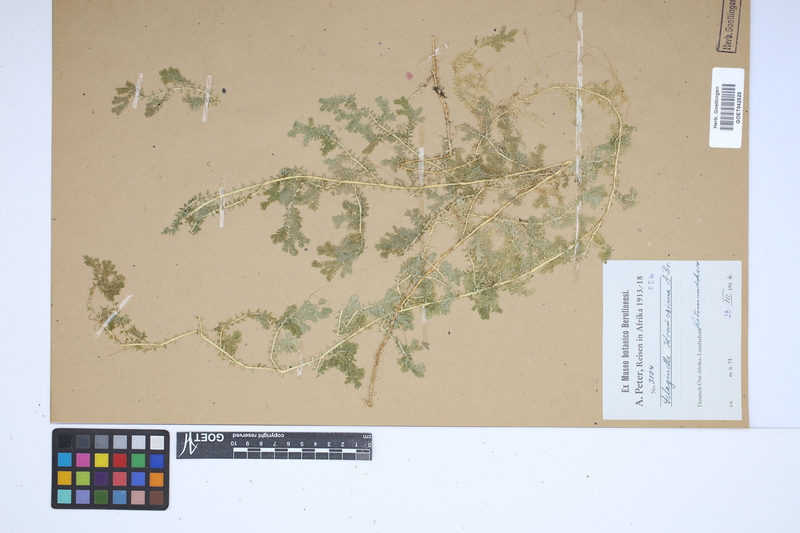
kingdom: Plantae
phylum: Tracheophyta
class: Lycopodiopsida
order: Selaginellales
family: Selaginellaceae
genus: Selaginella
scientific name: Selaginella kraussiana
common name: Krauss' spikemoss
